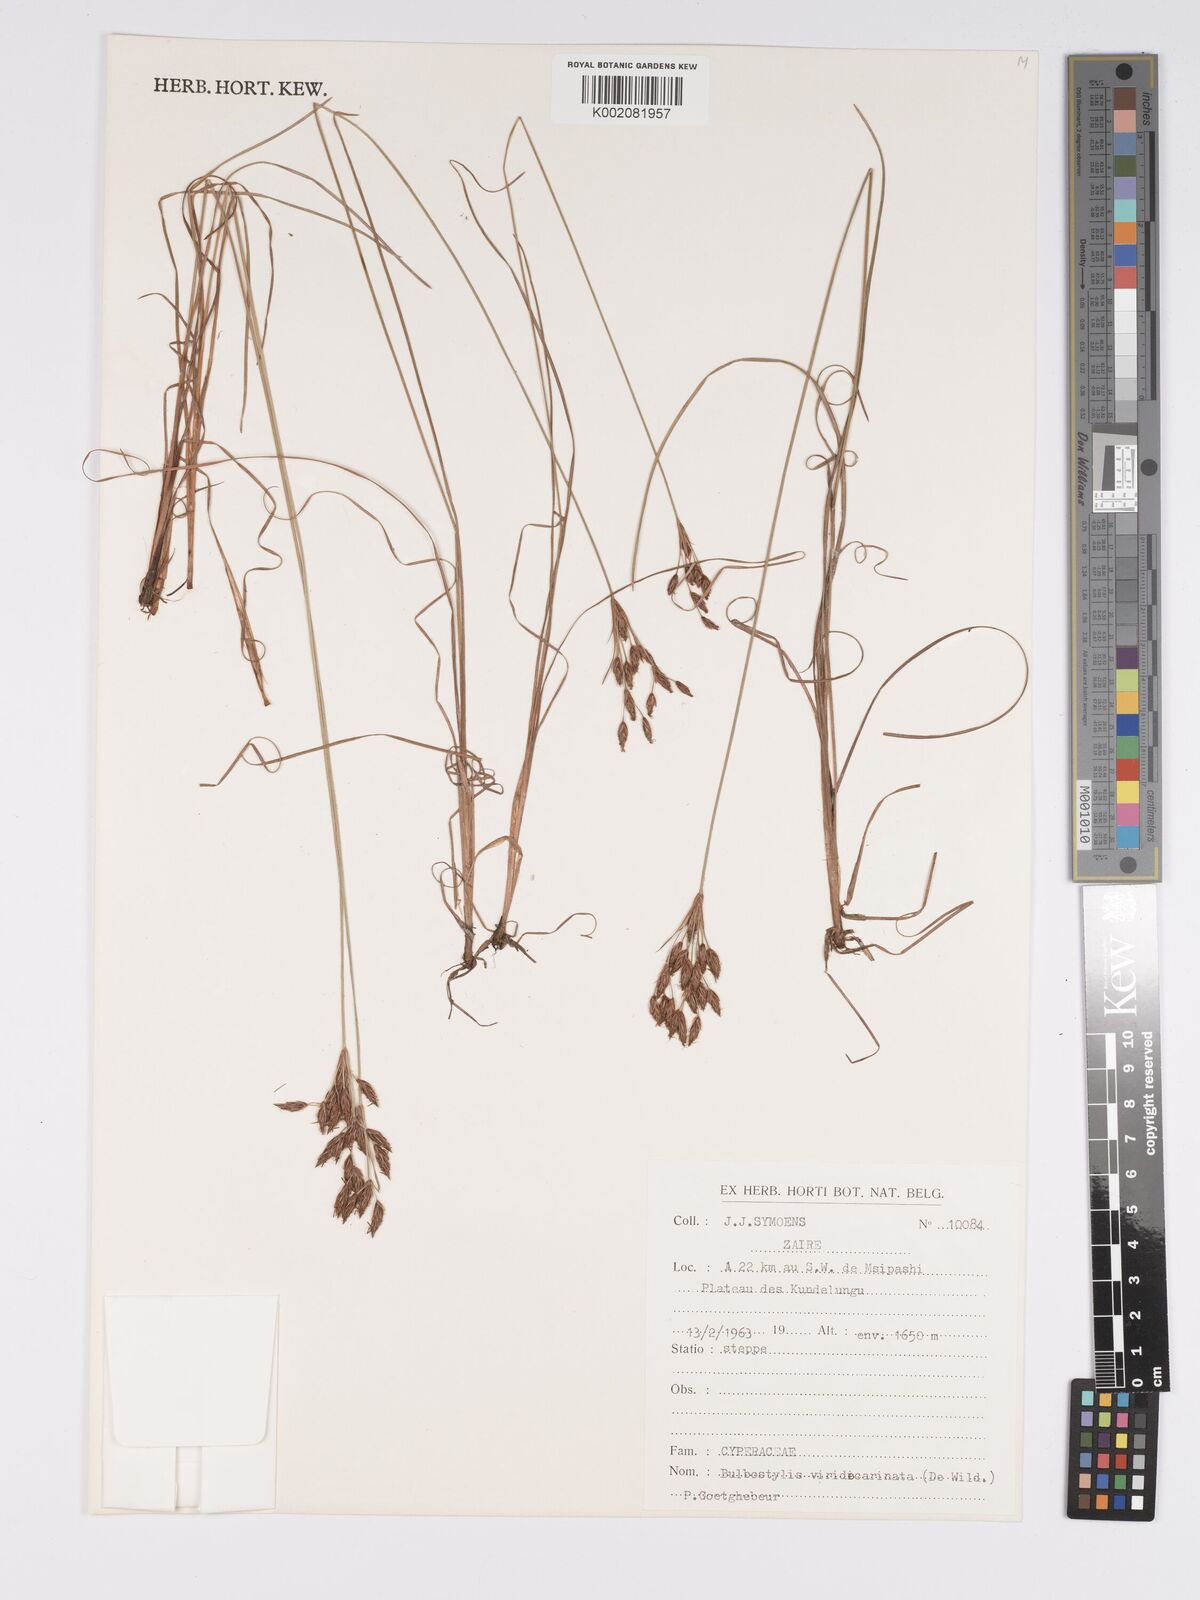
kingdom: Plantae
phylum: Tracheophyta
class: Liliopsida
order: Poales
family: Cyperaceae
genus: Bulbostylis
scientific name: Bulbostylis viridecarinata
